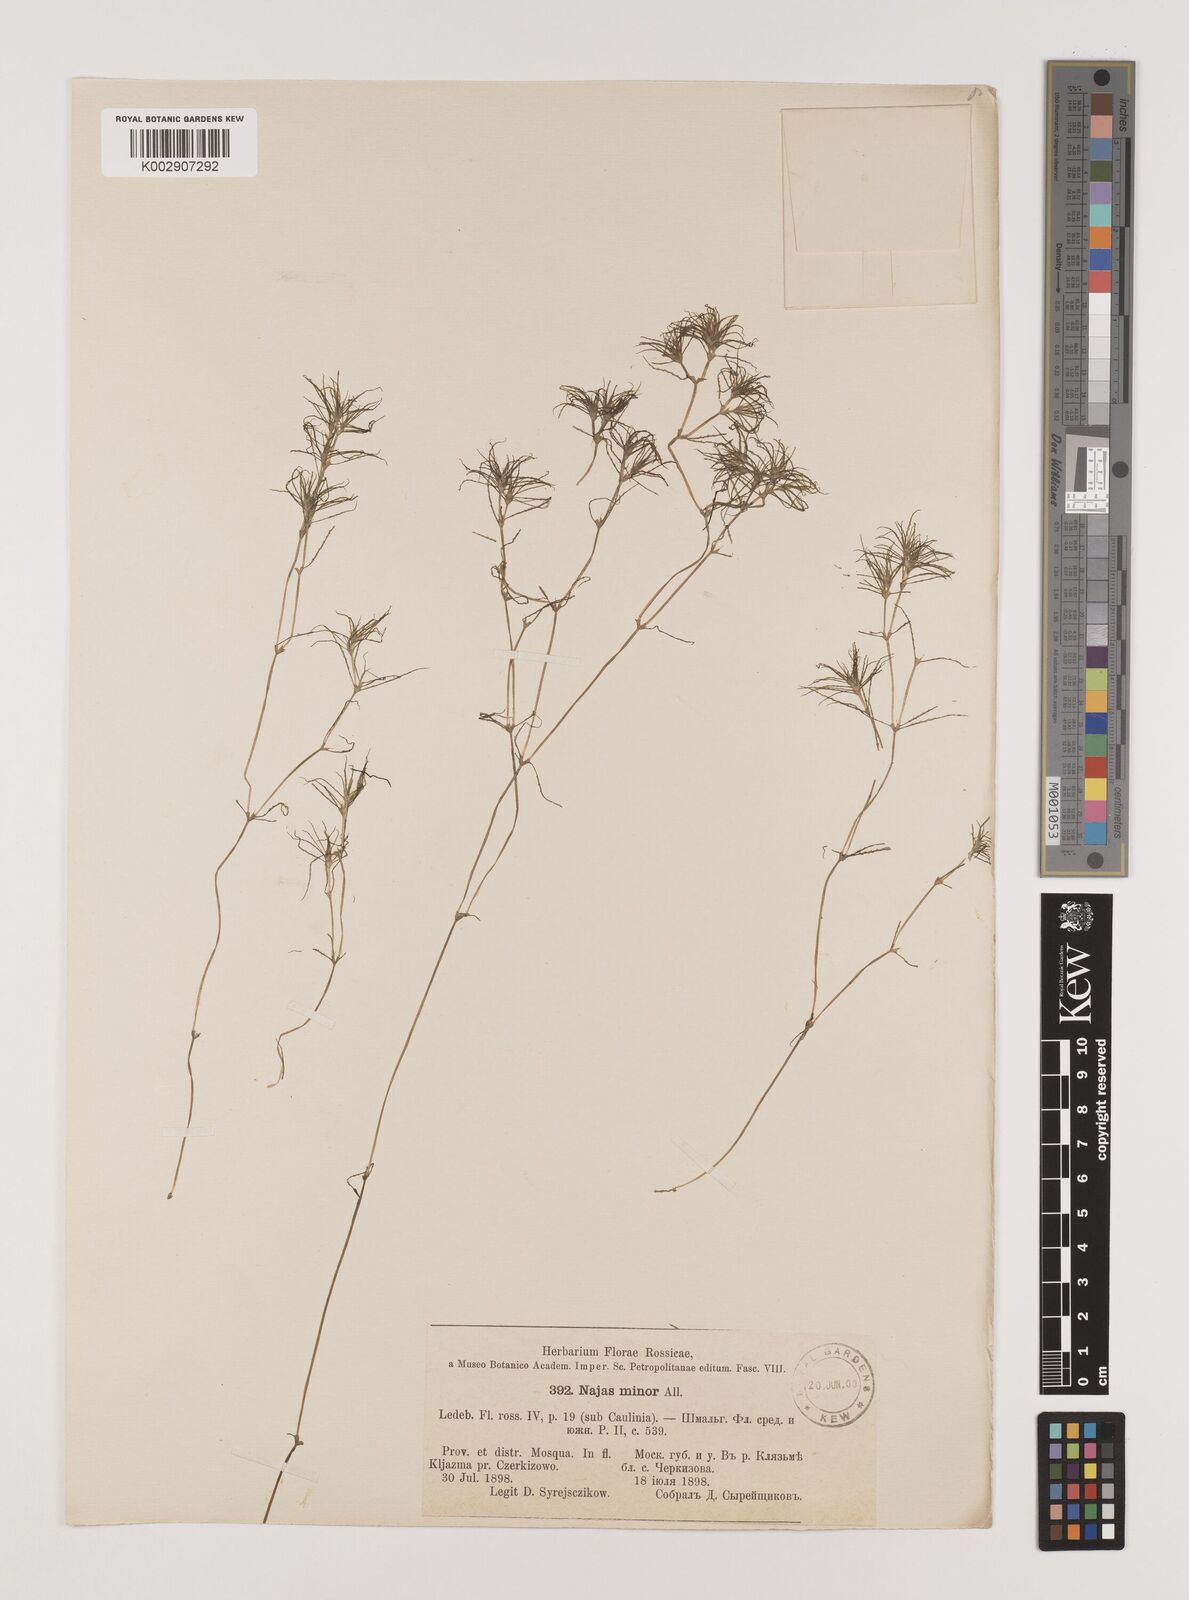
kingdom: Plantae
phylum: Tracheophyta
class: Liliopsida
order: Alismatales
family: Hydrocharitaceae
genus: Najas
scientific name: Najas minor
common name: Brittle naiad
